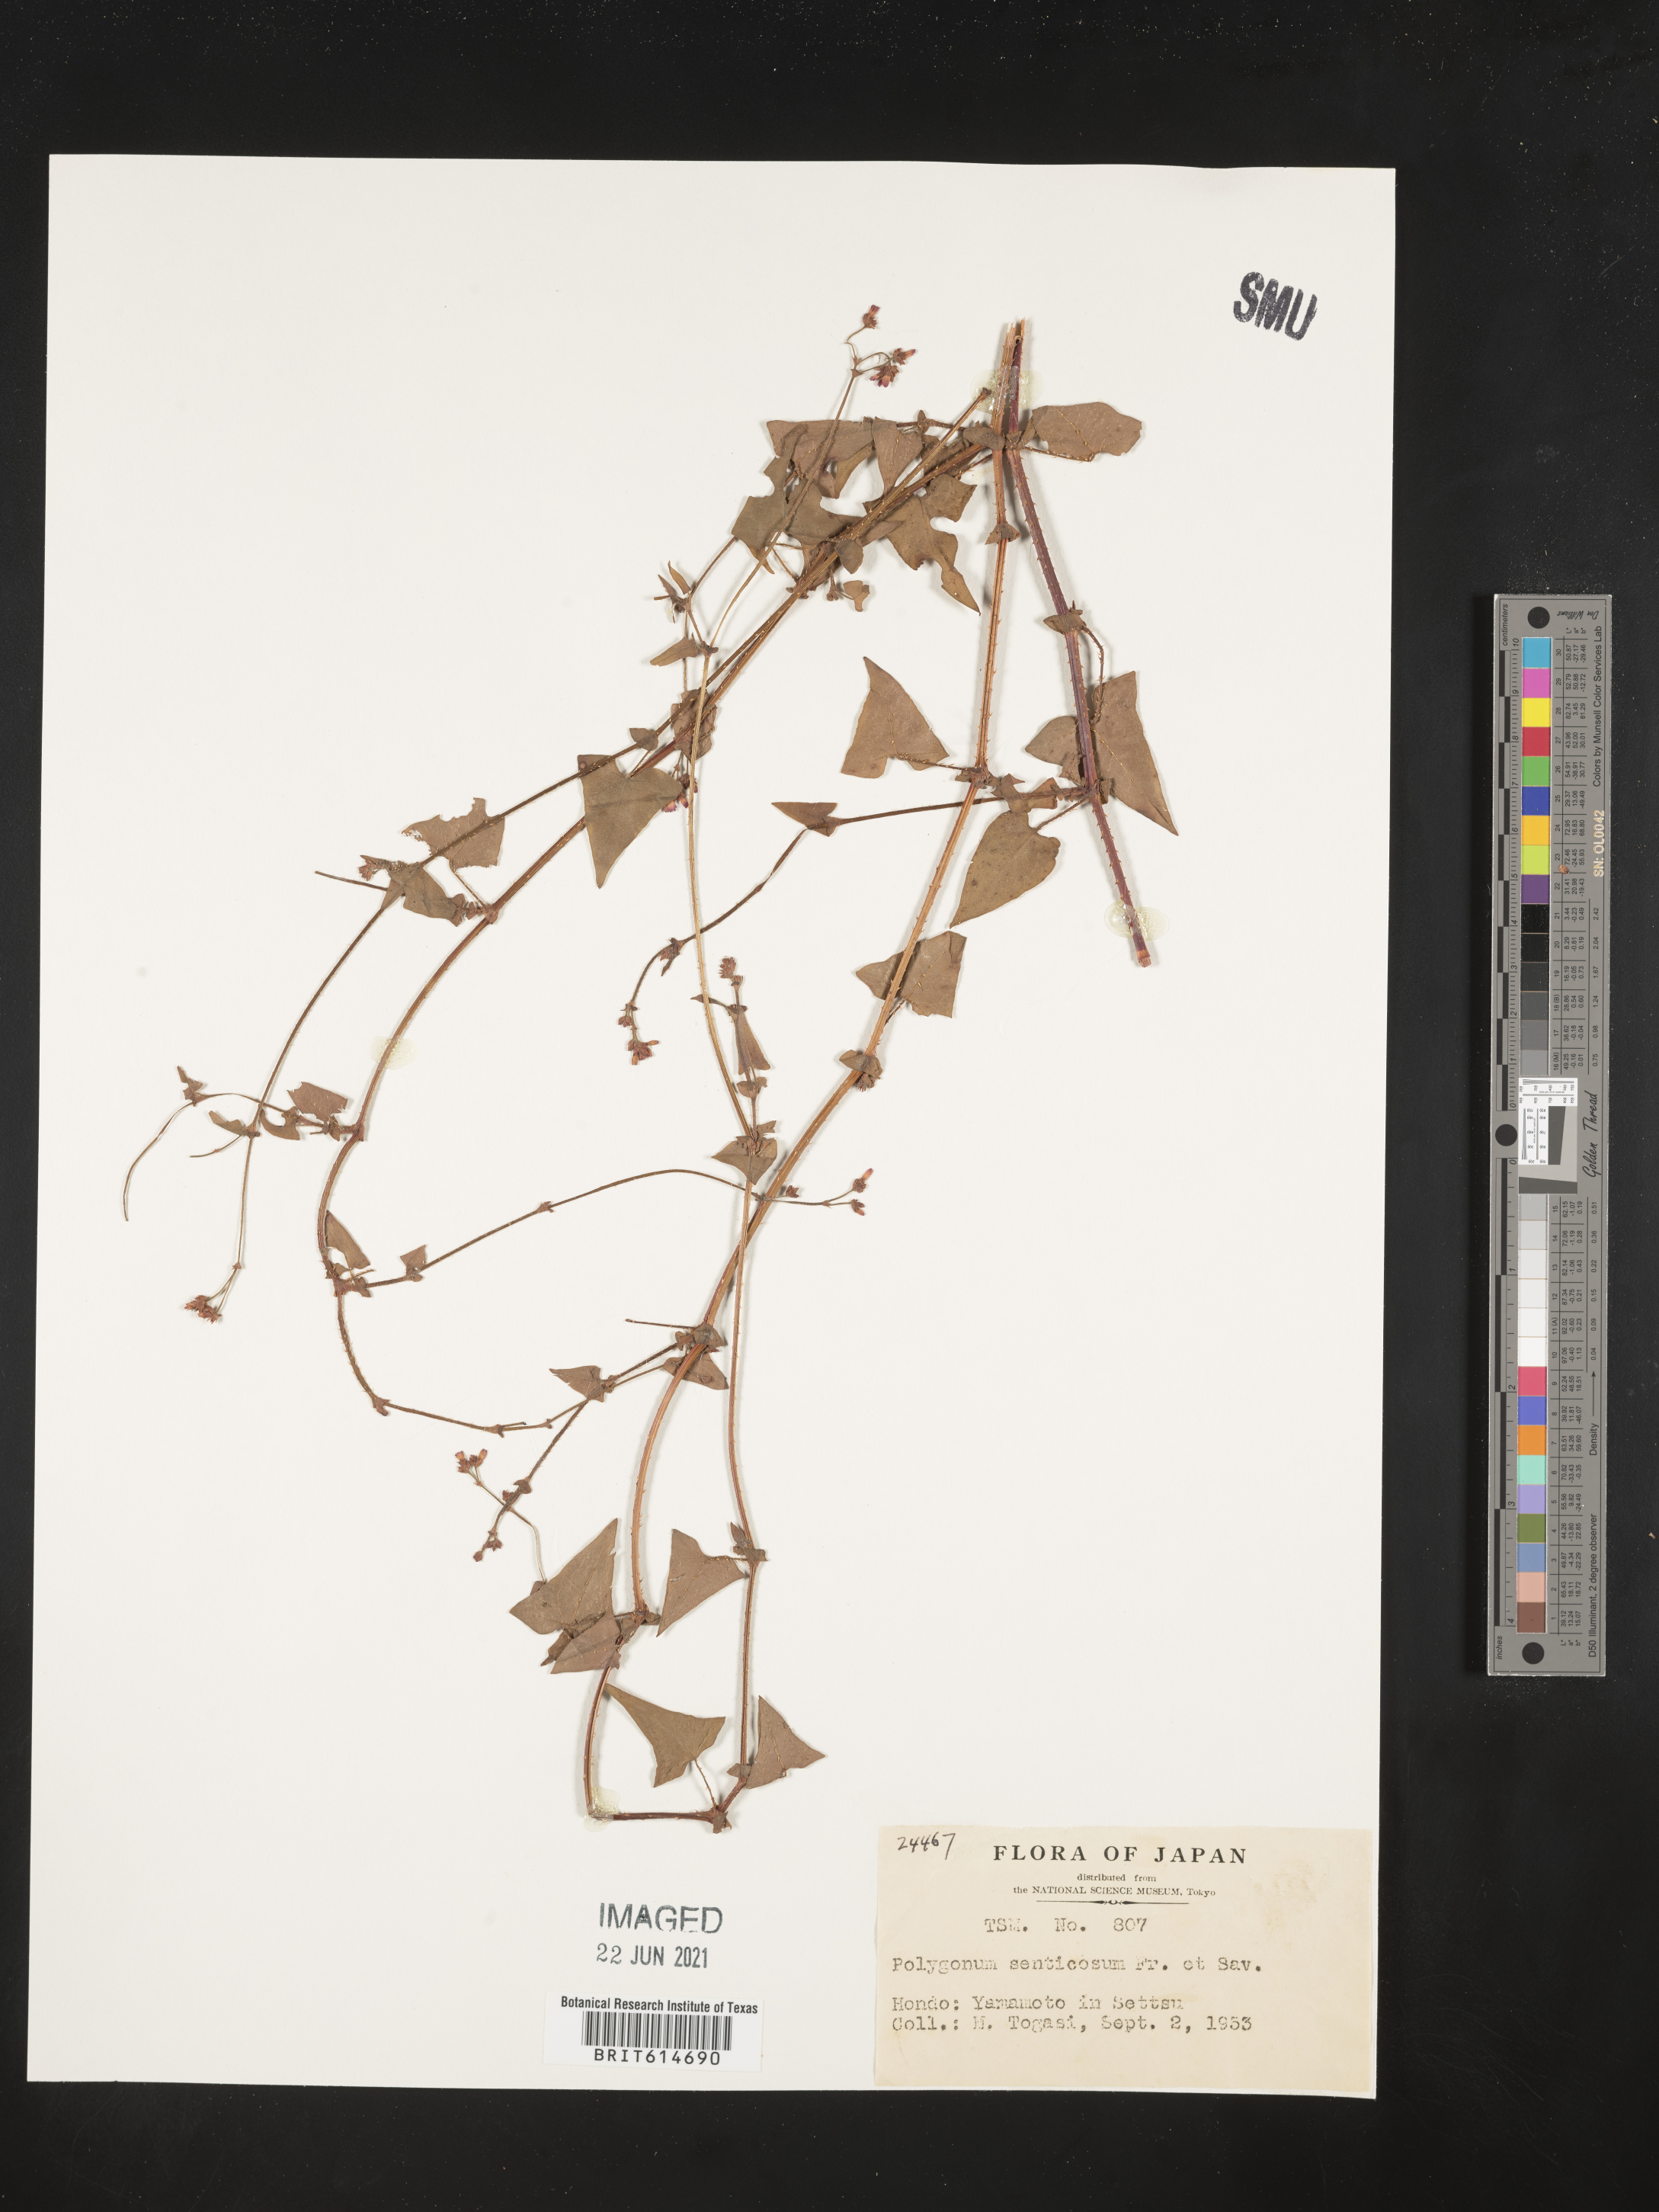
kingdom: Plantae
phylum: Tracheophyta
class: Magnoliopsida
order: Caryophyllales
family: Polygonaceae
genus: Persicaria
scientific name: Persicaria senticosa
